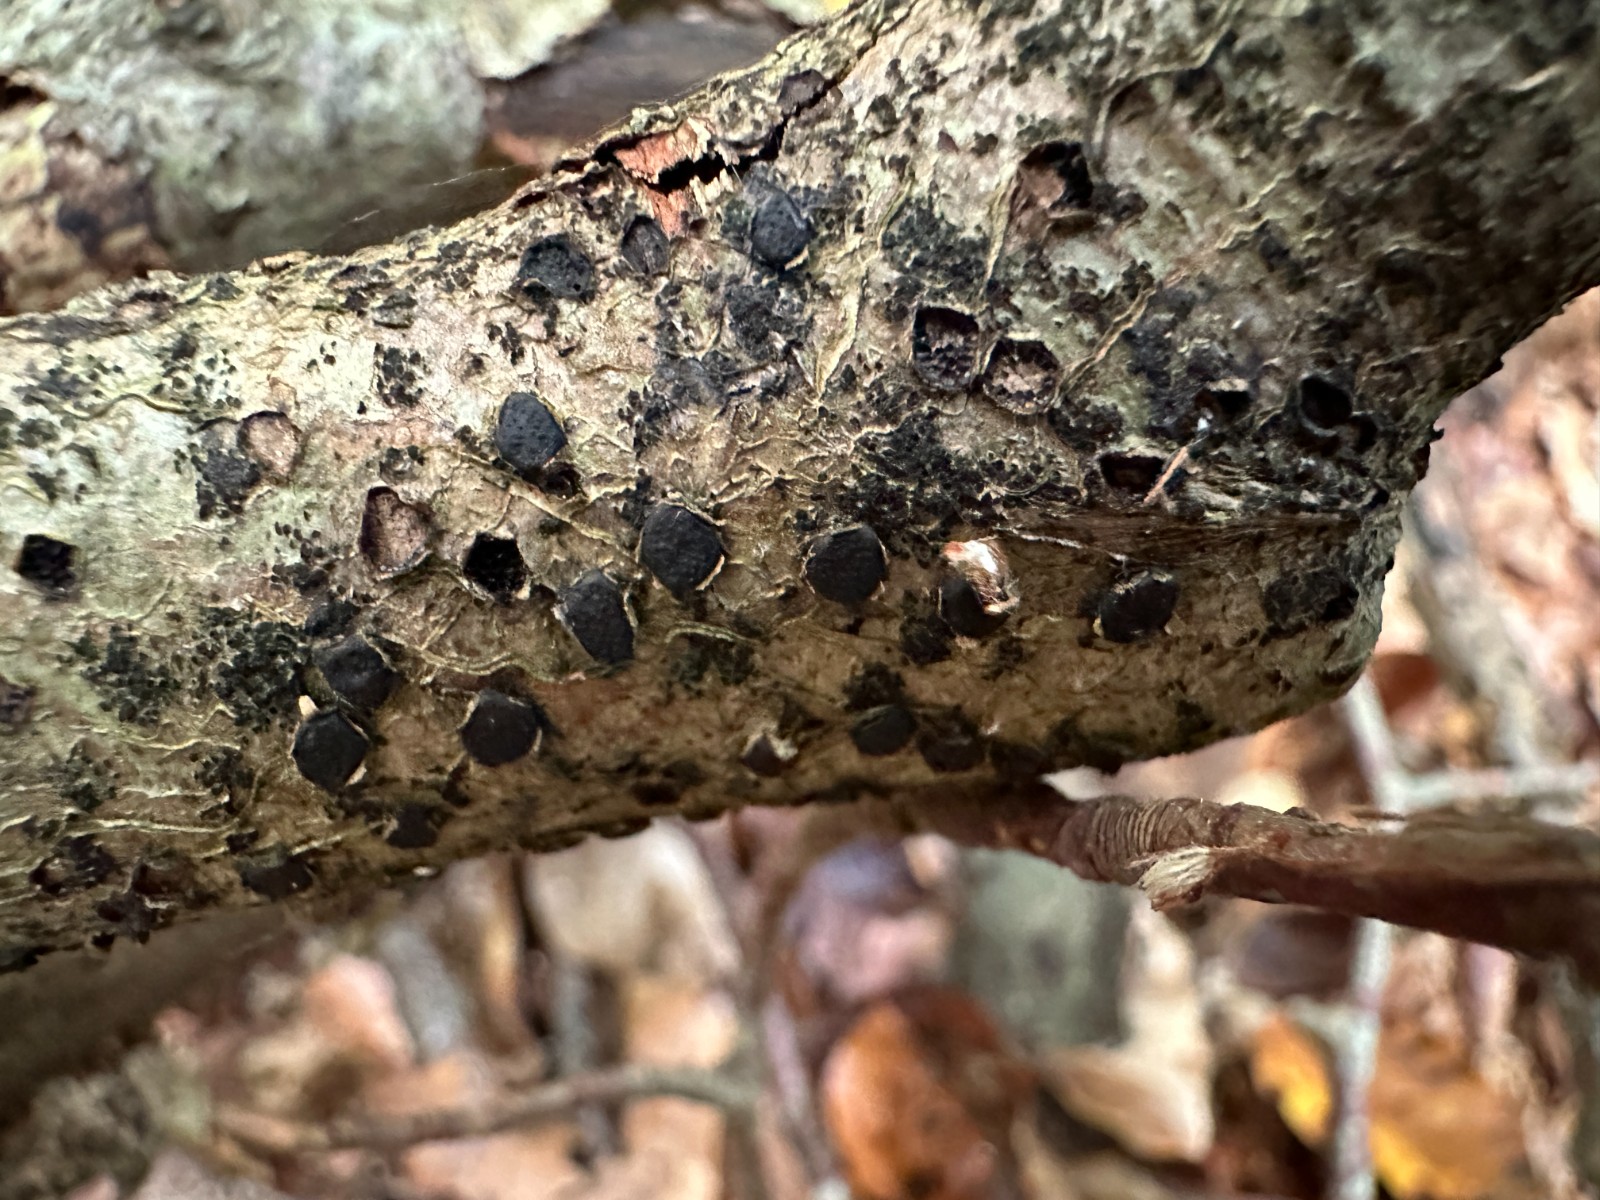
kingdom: Fungi
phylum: Ascomycota
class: Sordariomycetes
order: Xylariales
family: Diatrypaceae
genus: Diatrype
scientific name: Diatrype disciformis
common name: kant-kulskorpe
